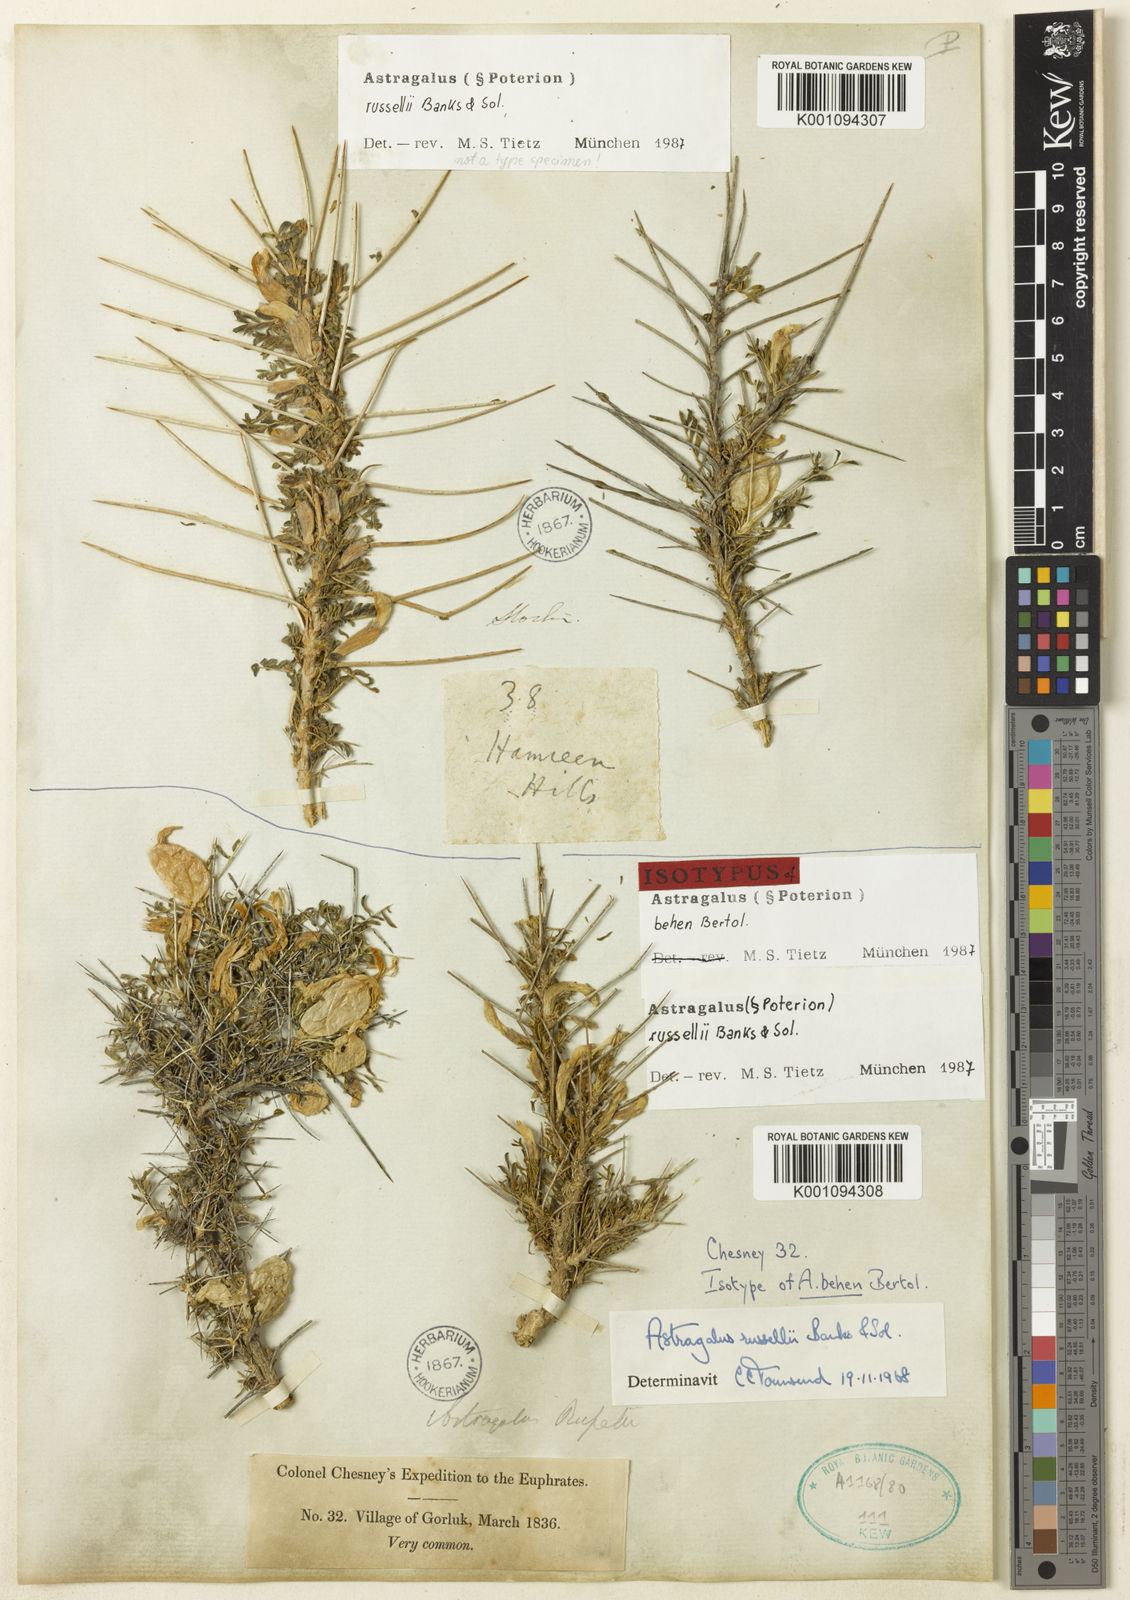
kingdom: Plantae
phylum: Tracheophyta
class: Magnoliopsida
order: Fabales
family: Fabaceae
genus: Astragalus
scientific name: Astragalus
